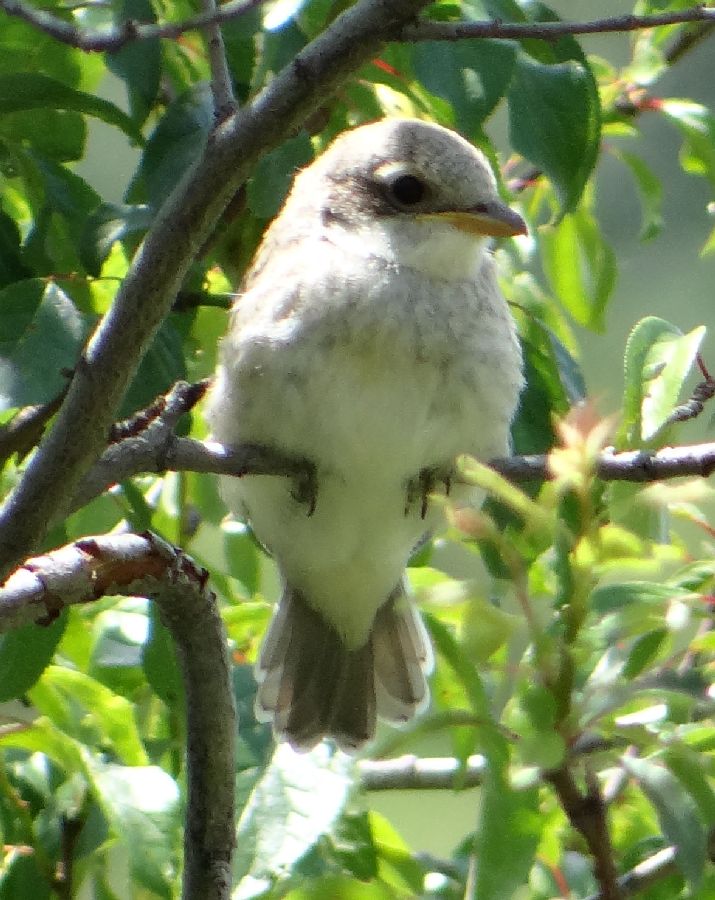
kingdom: Animalia
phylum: Chordata
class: Aves
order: Passeriformes
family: Laniidae
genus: Lanius
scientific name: Lanius collurio
